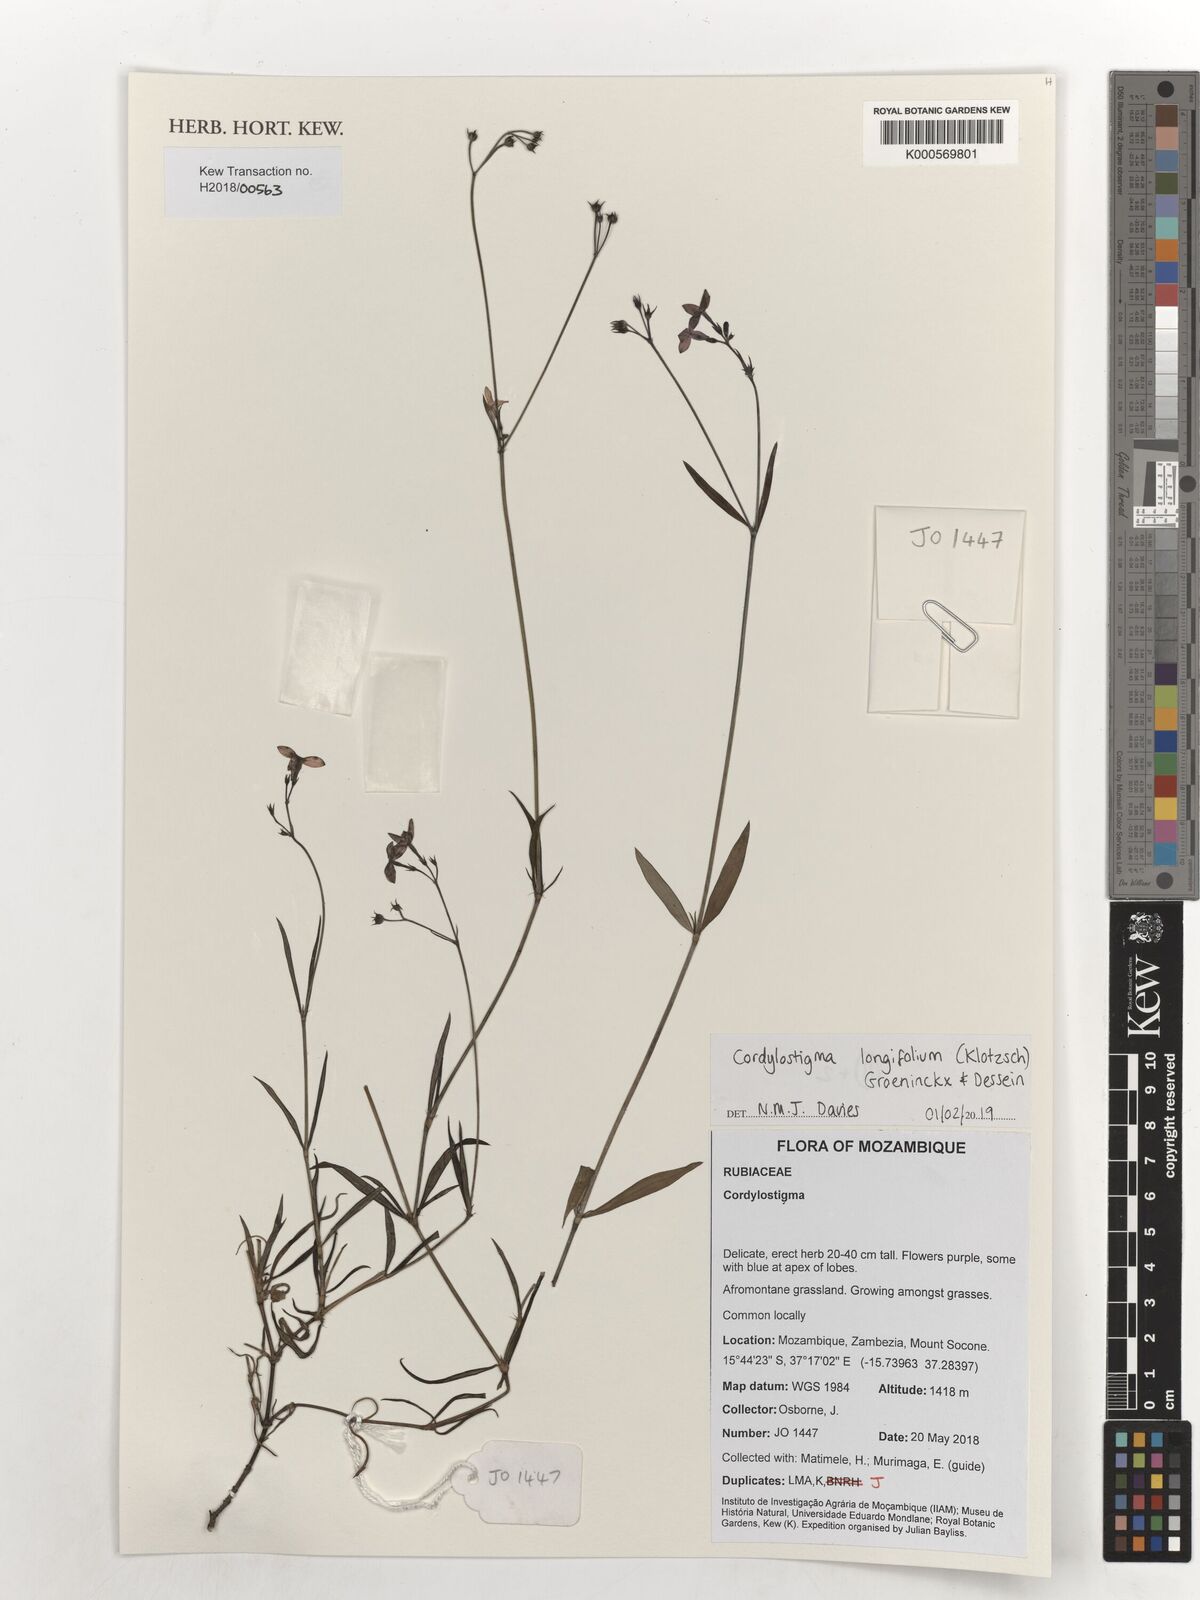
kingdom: Plantae
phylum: Tracheophyta
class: Magnoliopsida
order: Gentianales
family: Rubiaceae
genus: Cordylostigma
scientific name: Cordylostigma longifolium
